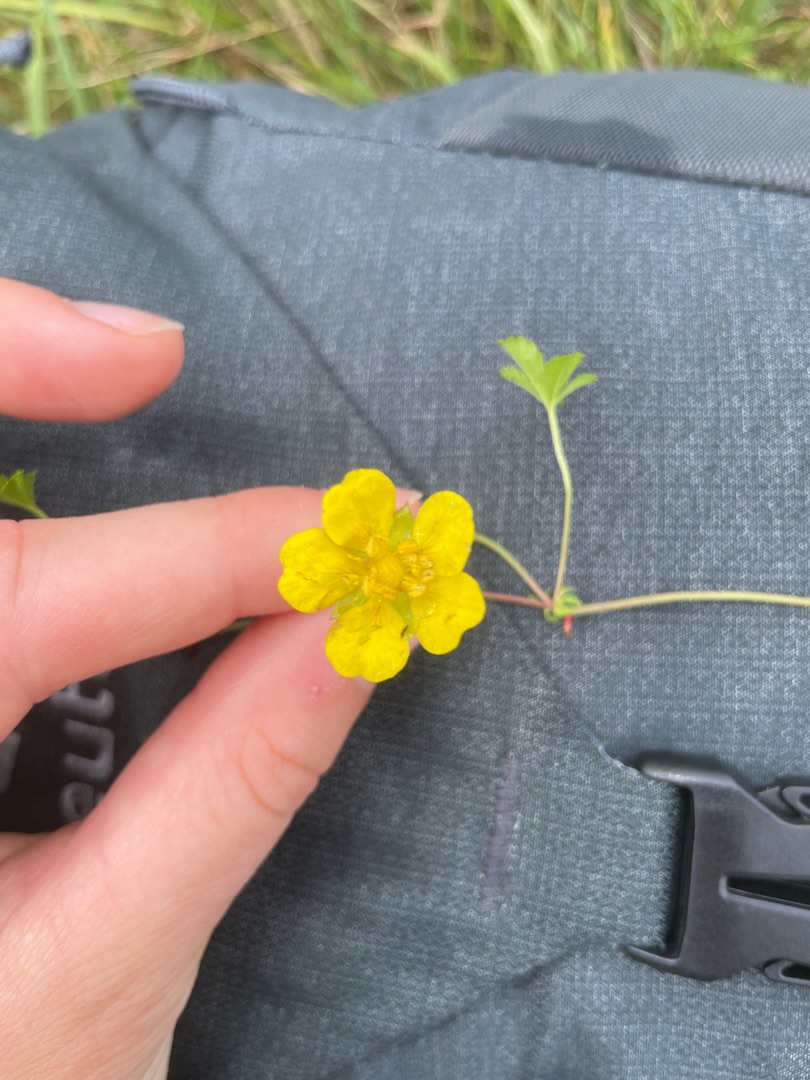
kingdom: Plantae
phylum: Tracheophyta
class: Magnoliopsida
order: Rosales
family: Rosaceae
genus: Potentilla
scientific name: Potentilla reptans
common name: Krybende potentil
